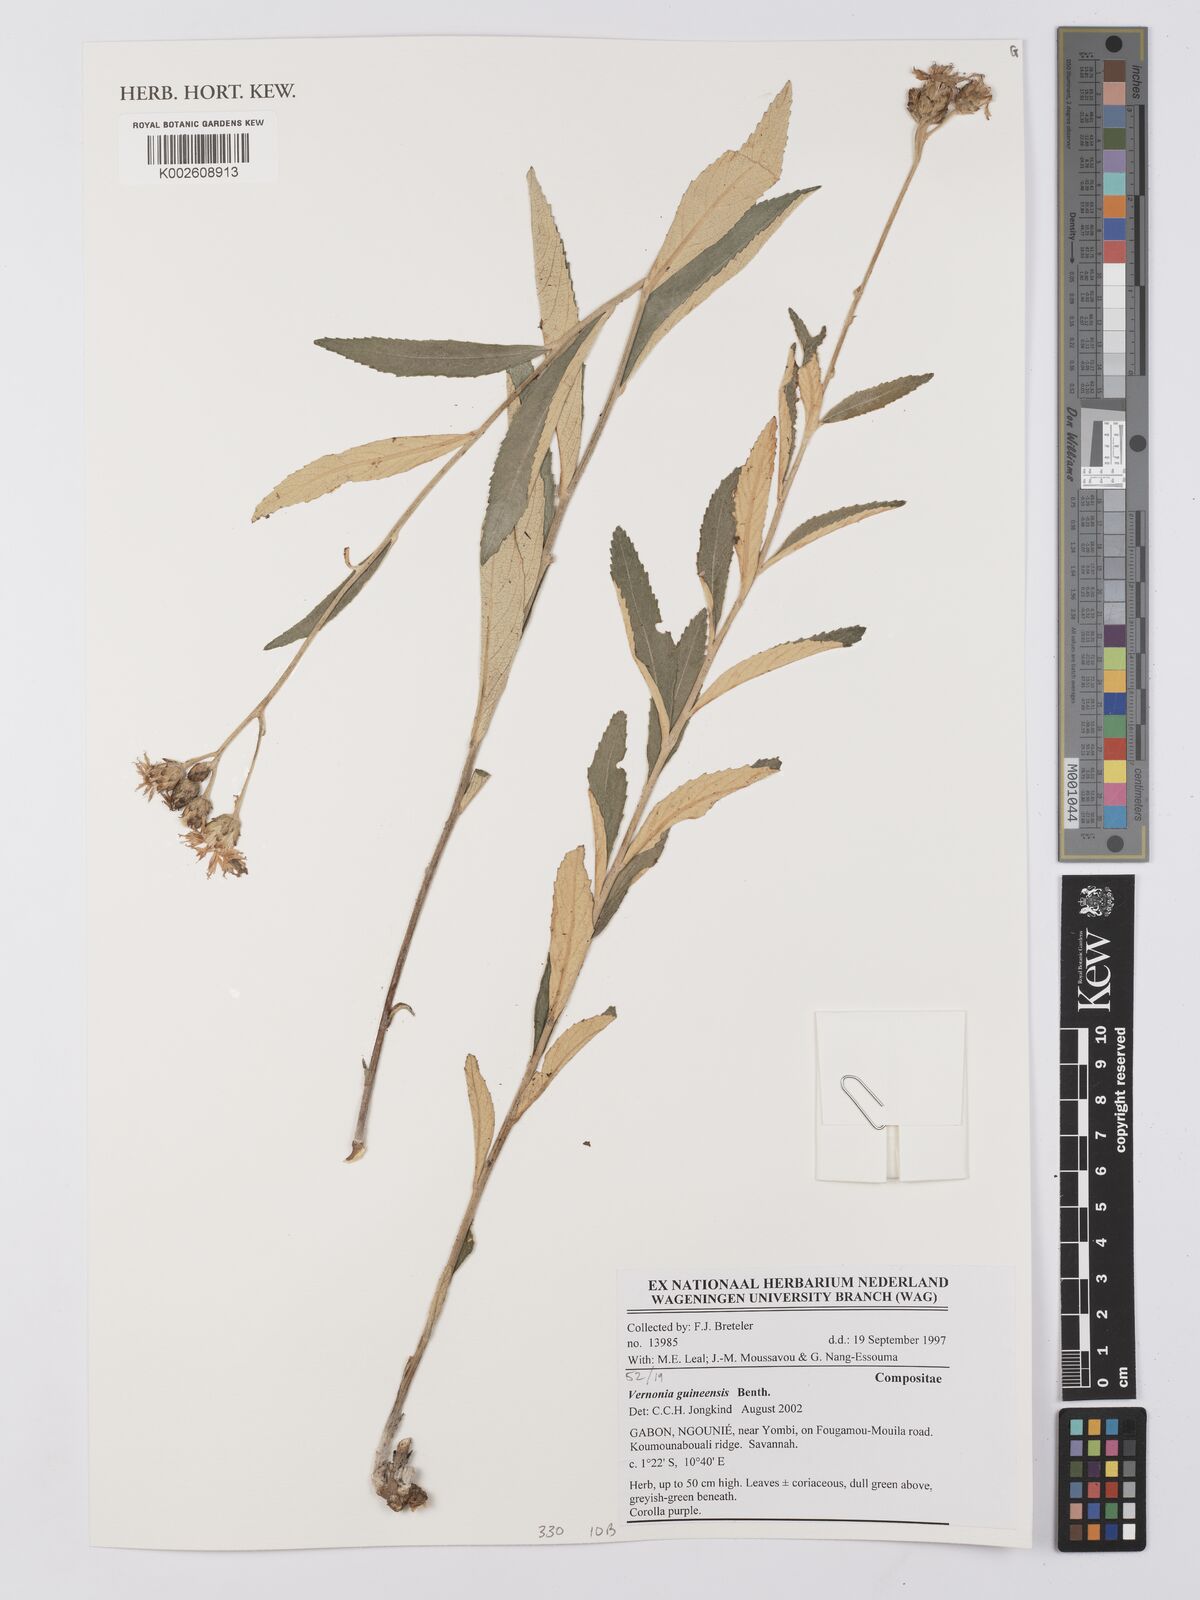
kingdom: Plantae
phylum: Tracheophyta
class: Magnoliopsida
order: Asterales
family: Asteraceae
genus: Baccharoides
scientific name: Baccharoides guineensis
